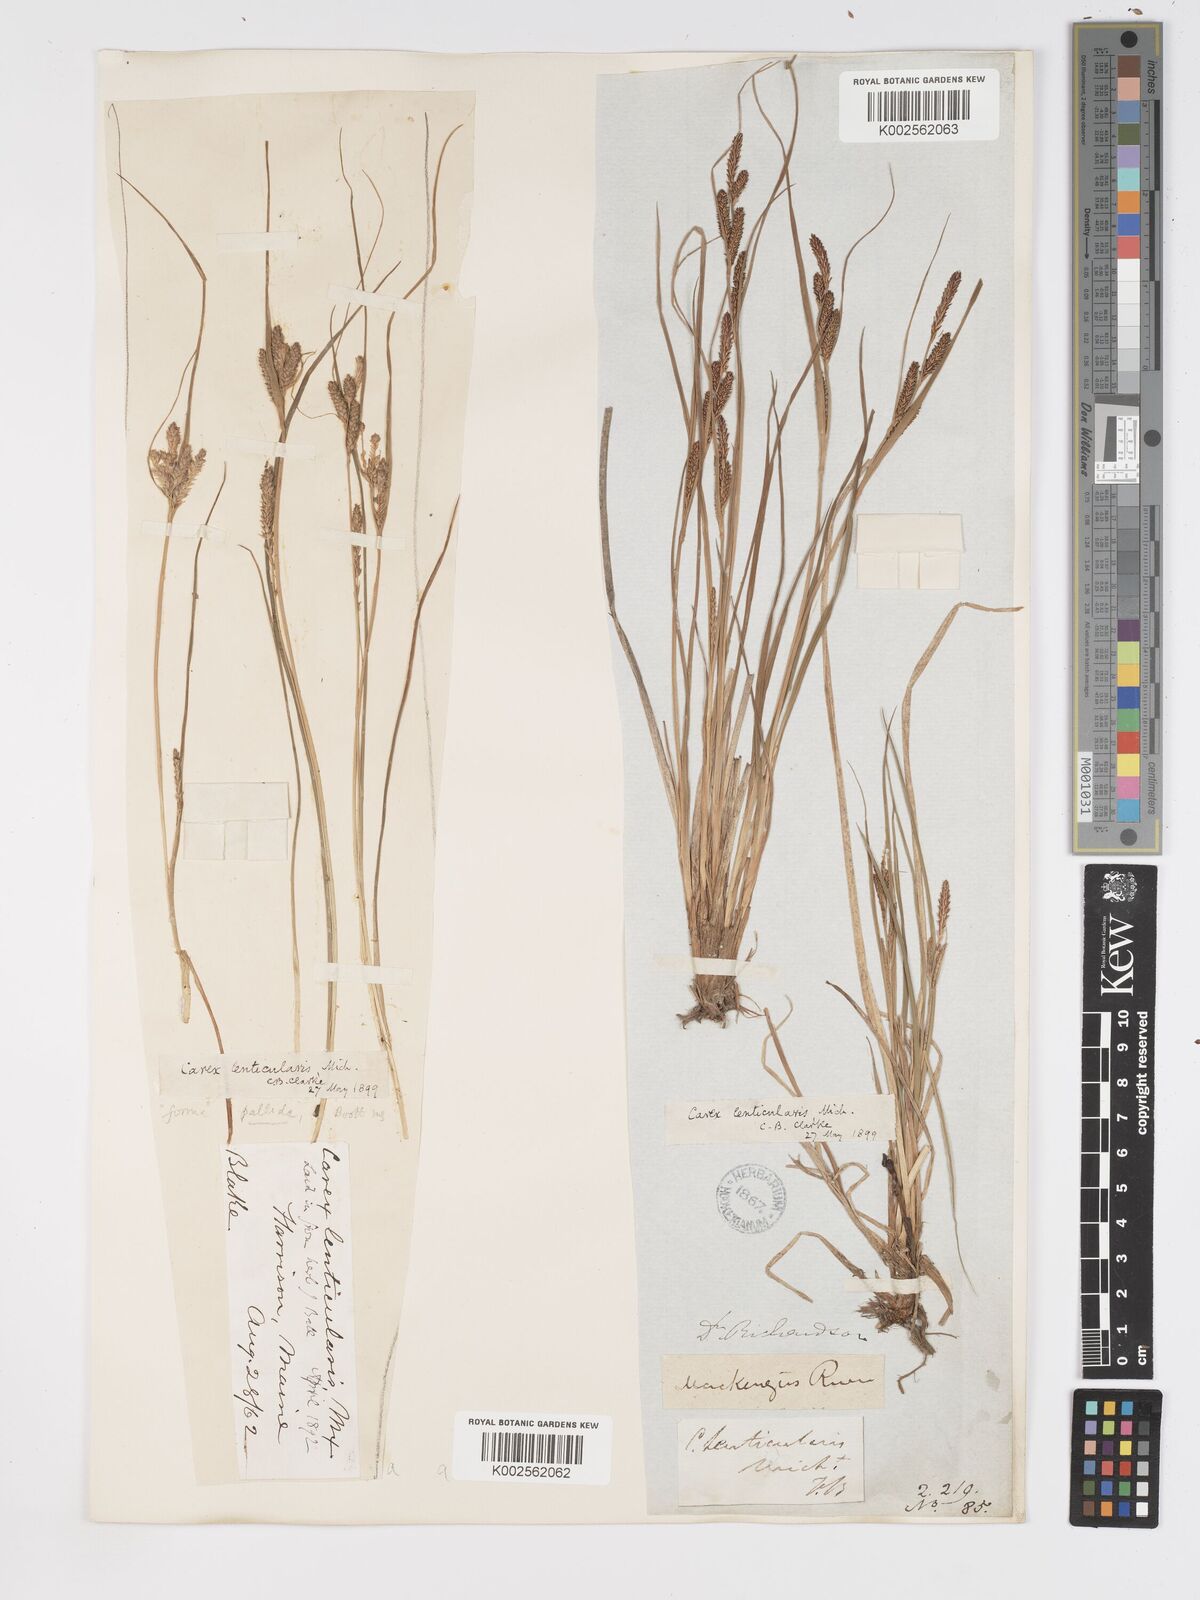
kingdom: Plantae
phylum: Tracheophyta
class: Liliopsida
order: Poales
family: Cyperaceae
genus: Carex
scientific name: Carex lenticularis
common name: Lakeshore sedge
